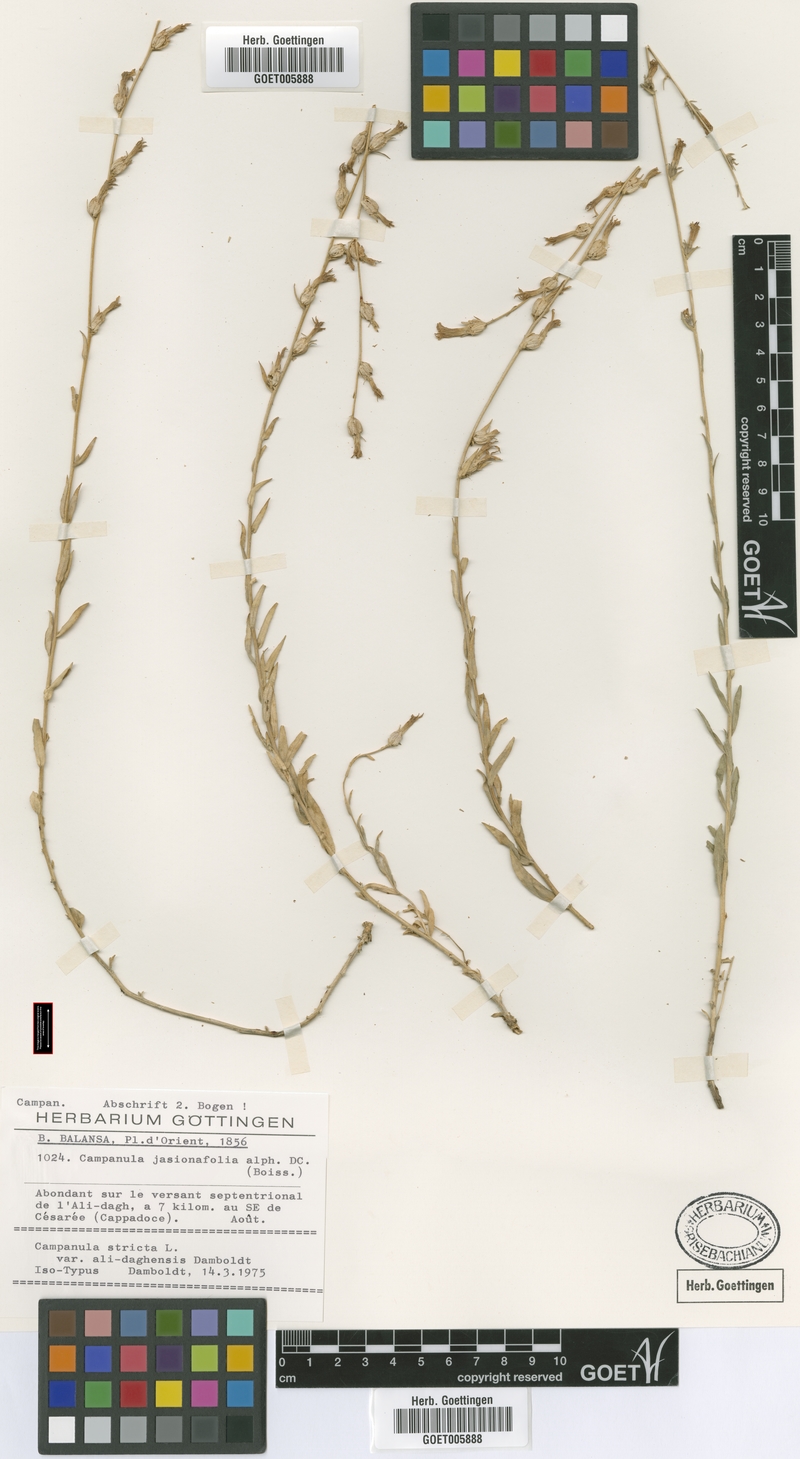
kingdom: Plantae
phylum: Tracheophyta
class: Magnoliopsida
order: Asterales
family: Campanulaceae
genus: Campanula
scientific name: Campanula stricta
